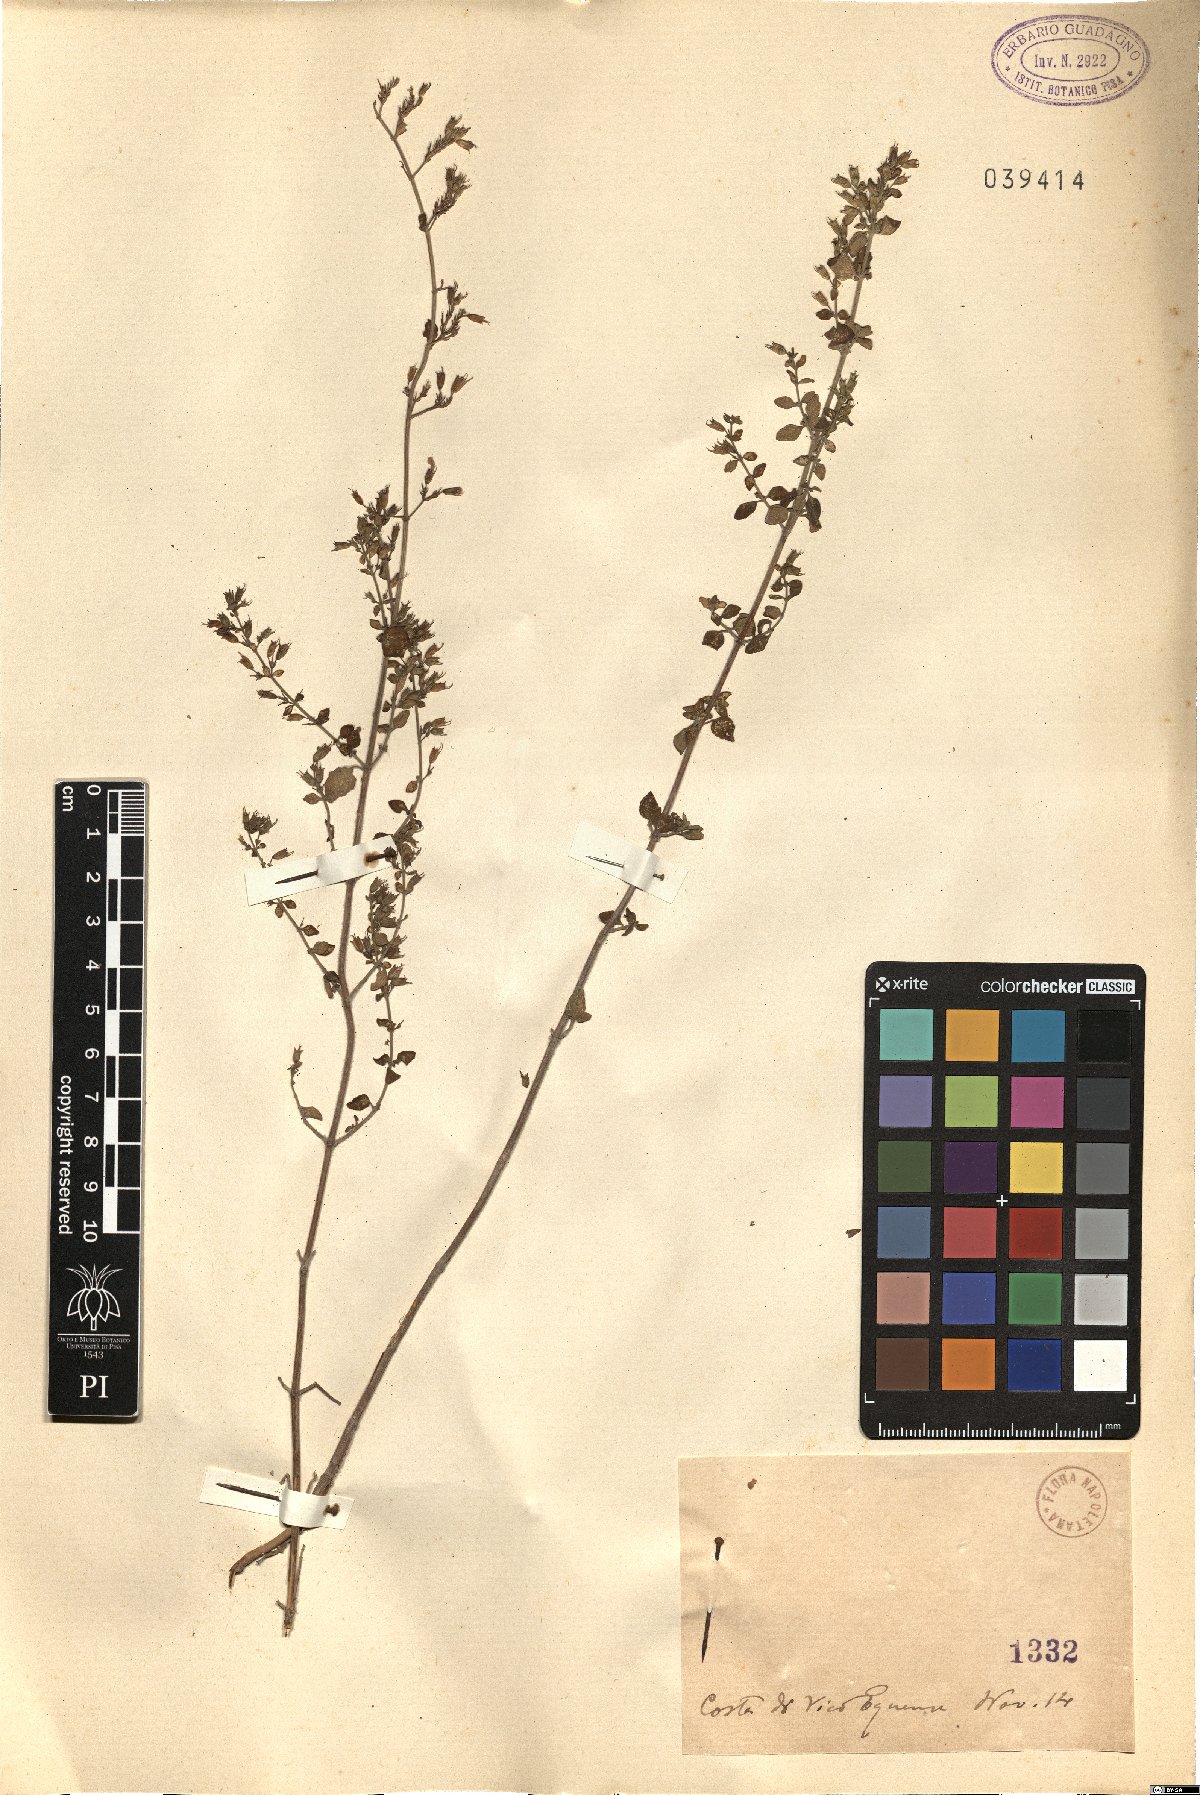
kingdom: Plantae
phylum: Tracheophyta
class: Magnoliopsida
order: Lamiales
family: Lamiaceae
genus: Calamintha
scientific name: Calamintha
